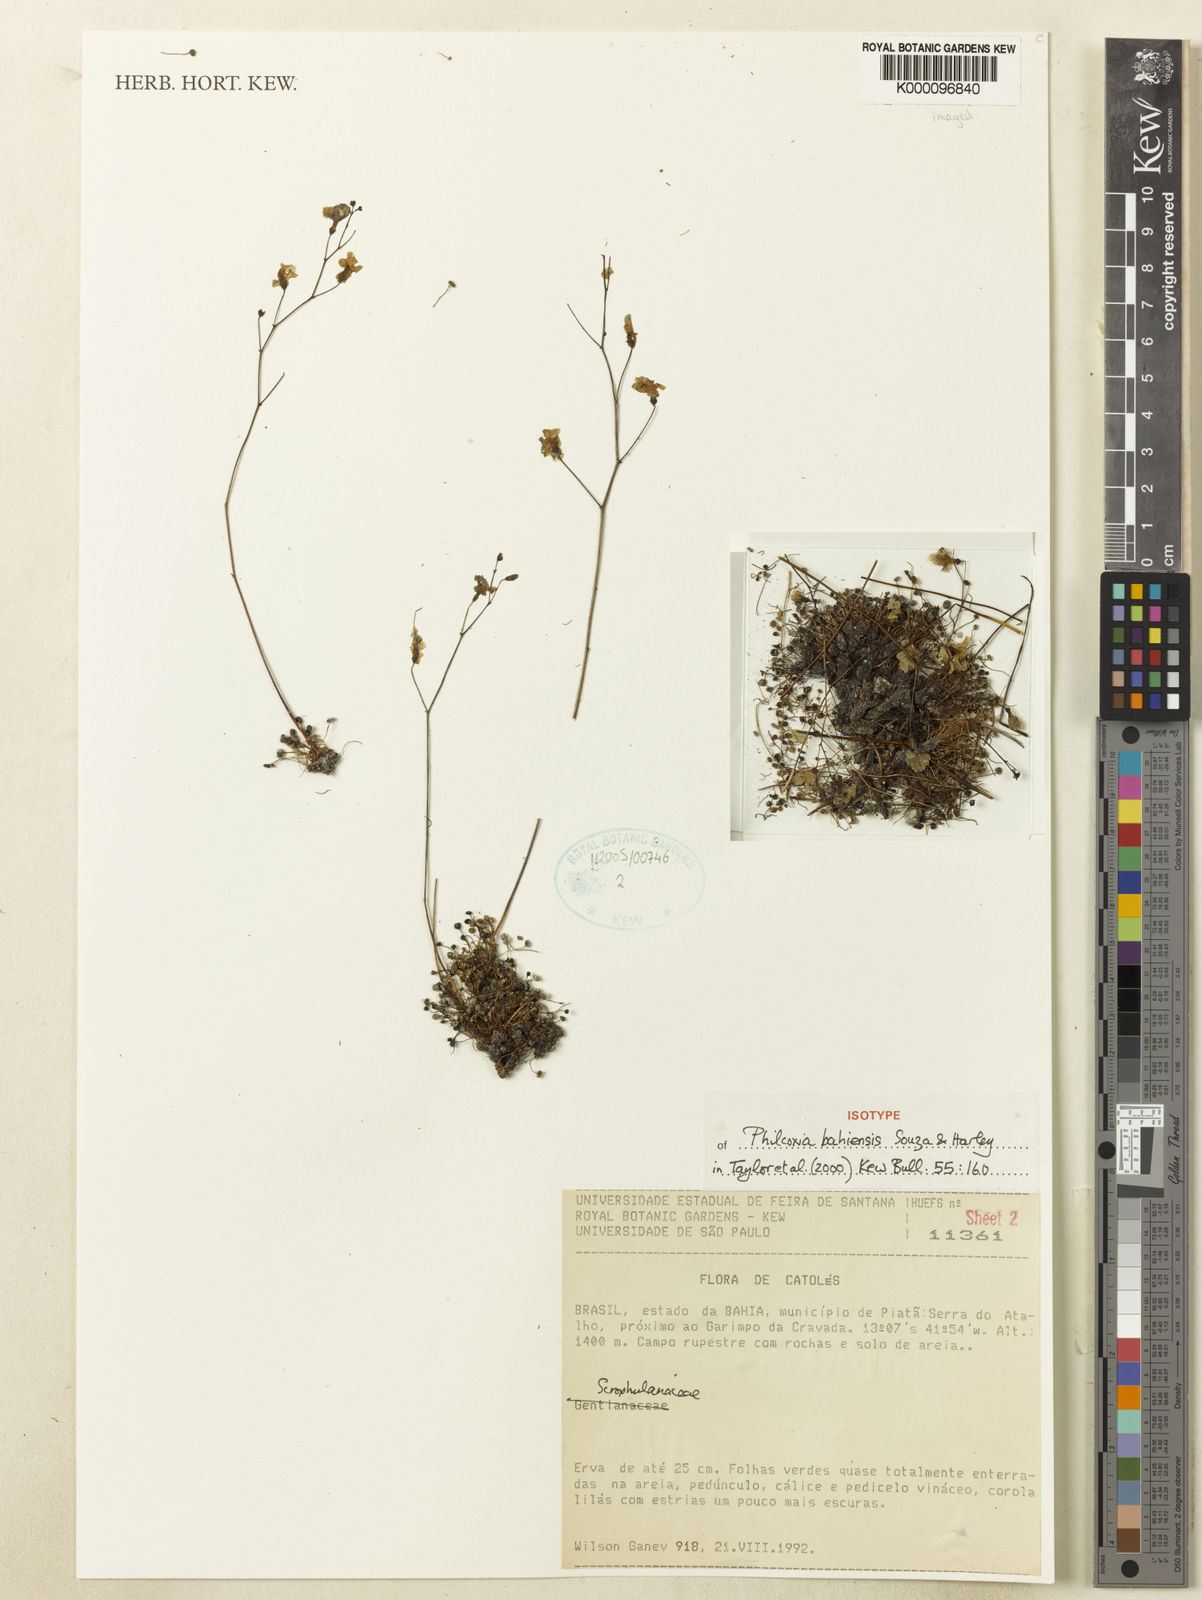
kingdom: Plantae
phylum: Tracheophyta
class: Magnoliopsida
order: Lamiales
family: Plantaginaceae
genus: Philcoxia
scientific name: Philcoxia bahiensis
